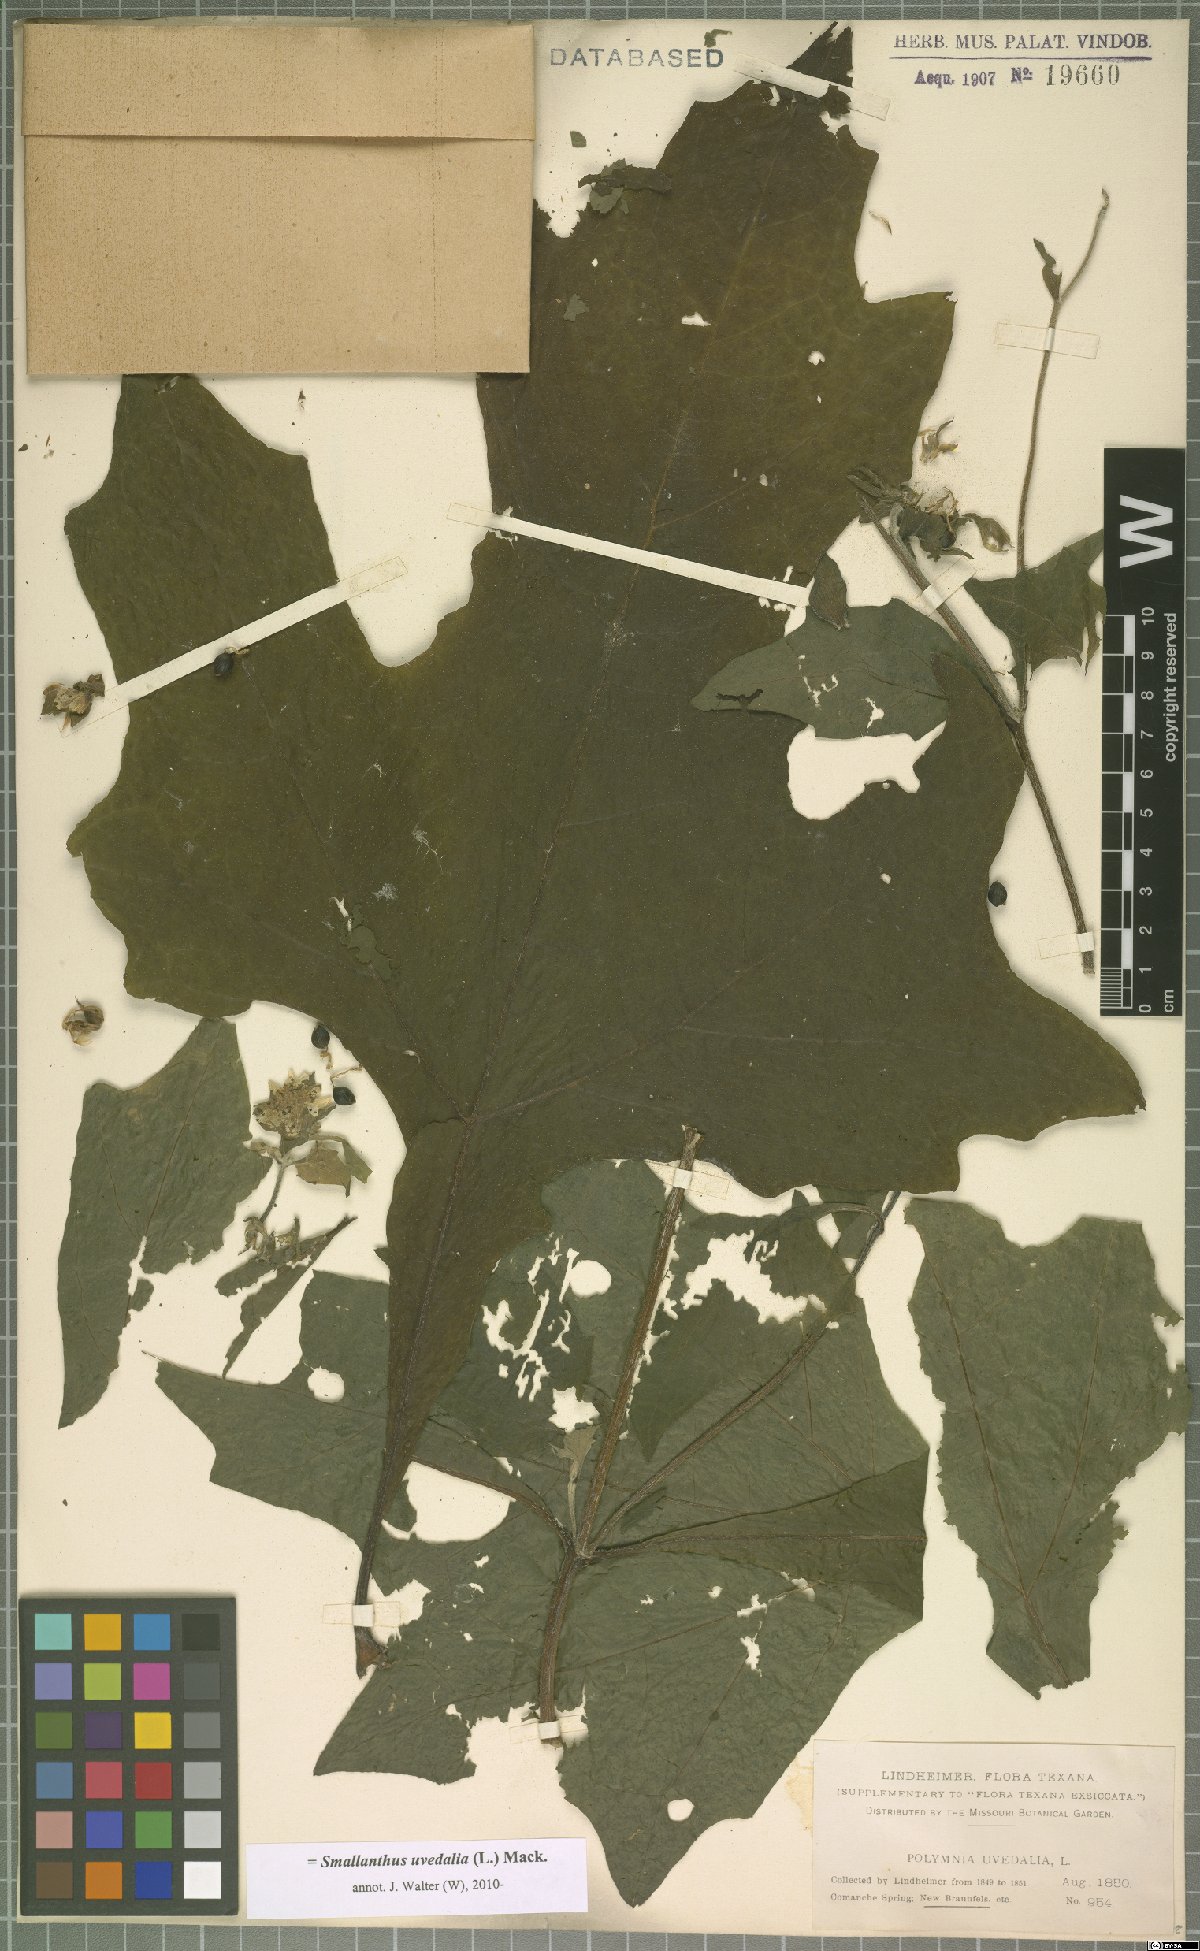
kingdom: Plantae
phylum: Tracheophyta
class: Magnoliopsida
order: Asterales
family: Asteraceae
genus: Smallanthus
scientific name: Smallanthus uvedalia
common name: Bear's-foot
